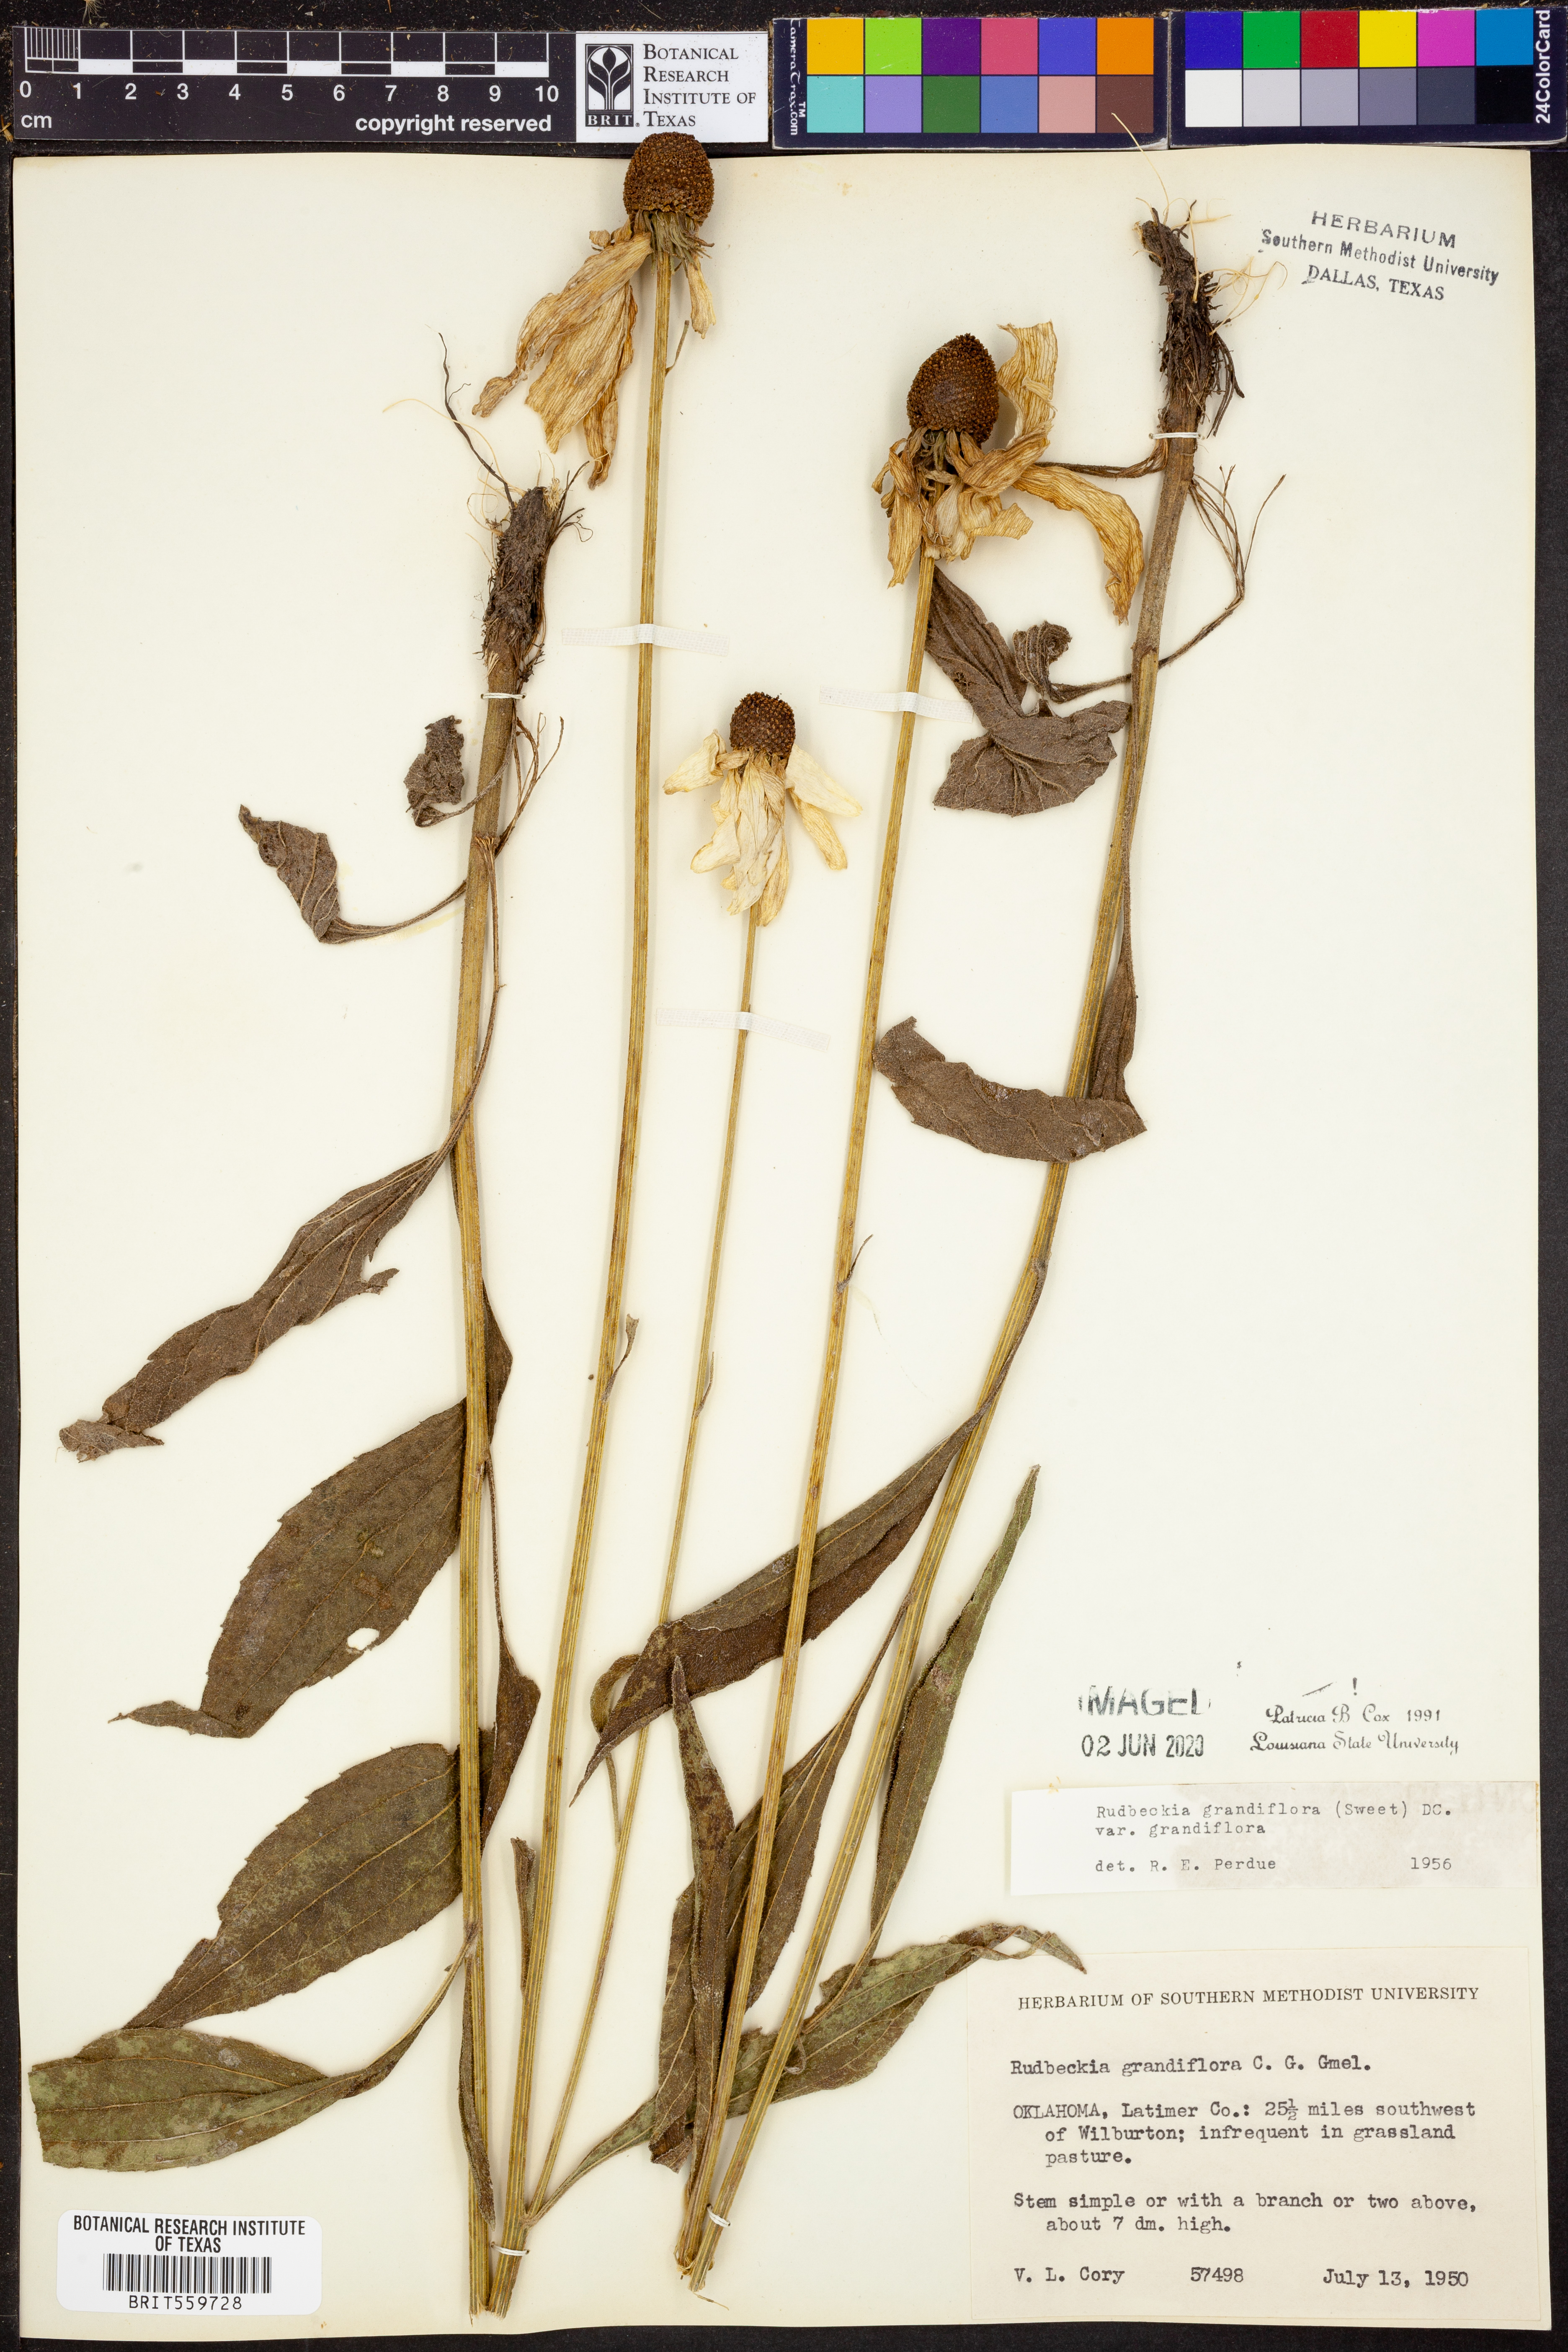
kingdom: Plantae
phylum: Tracheophyta
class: Magnoliopsida
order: Asterales
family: Asteraceae
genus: Rudbeckia
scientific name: Rudbeckia grandiflora
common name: Large-flowered coneflower
